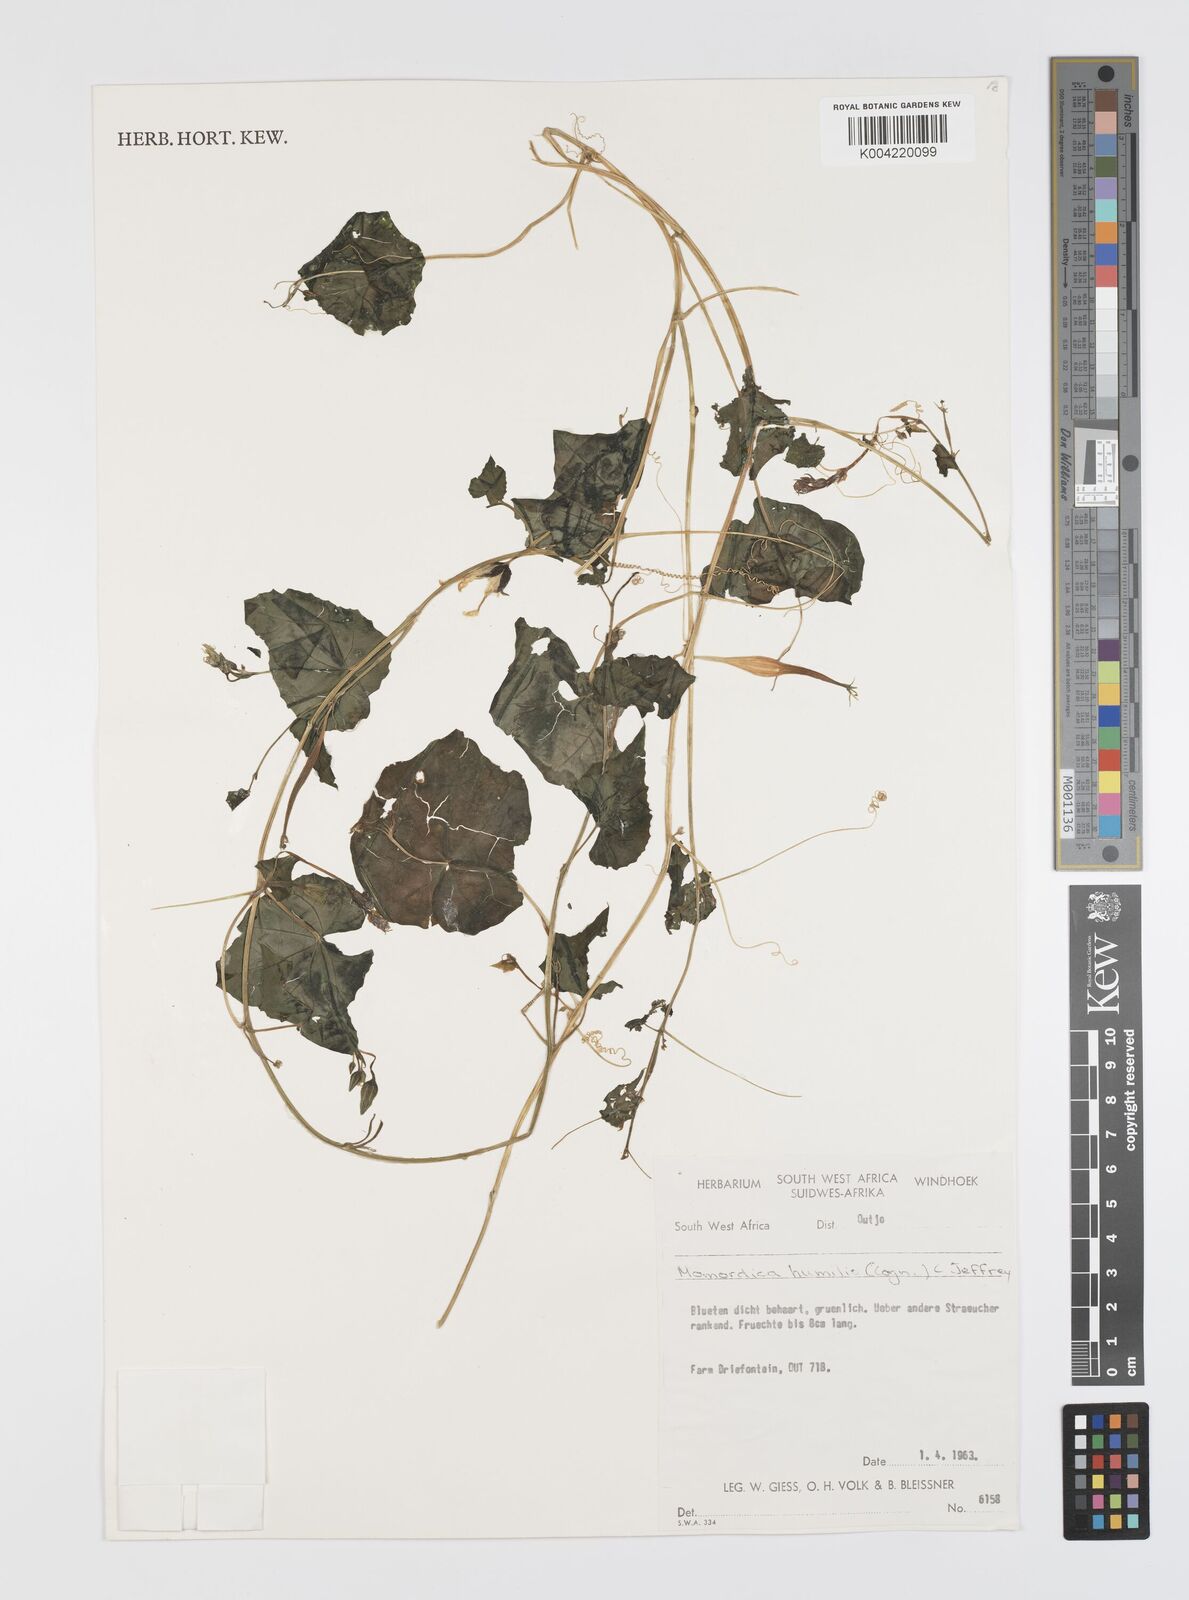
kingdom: Plantae
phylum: Tracheophyta
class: Magnoliopsida
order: Cucurbitales
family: Cucurbitaceae
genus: Momordica
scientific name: Momordica
